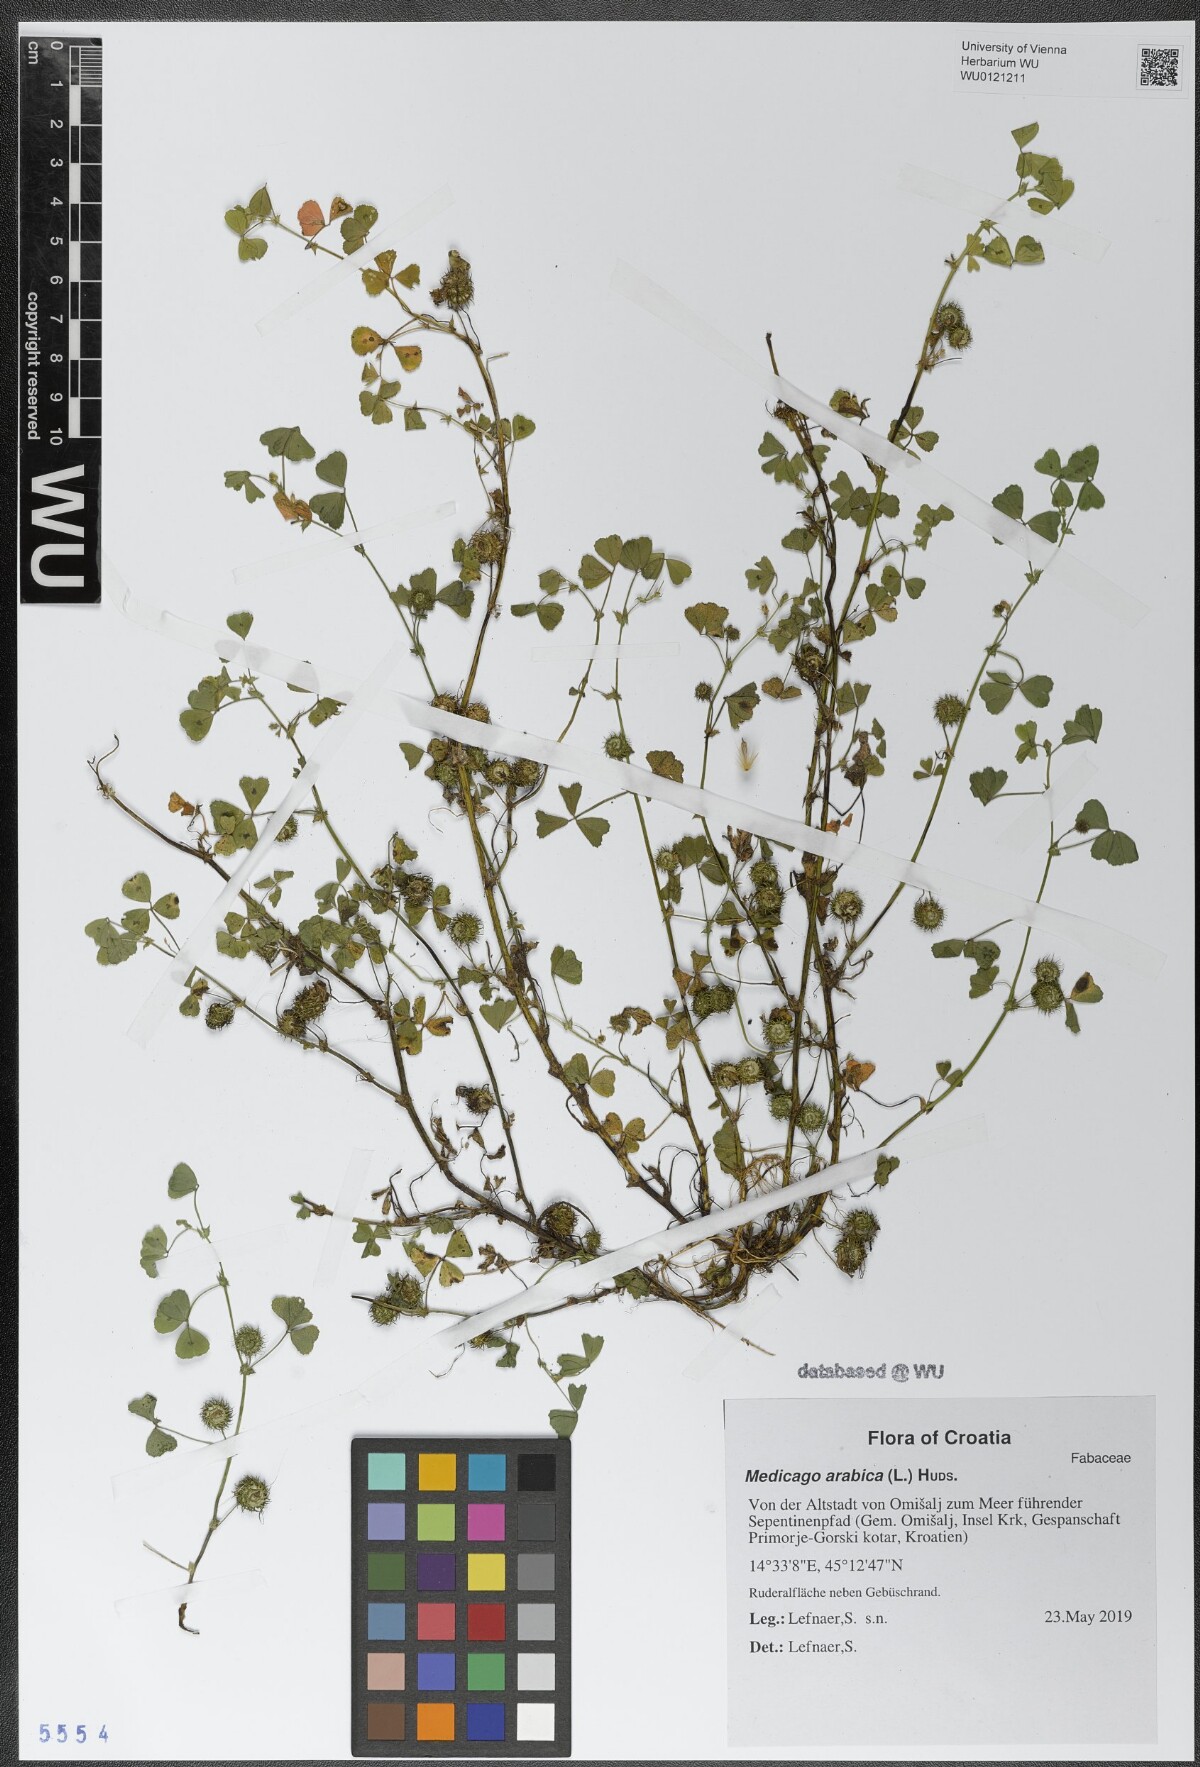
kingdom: Plantae
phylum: Tracheophyta
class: Magnoliopsida
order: Fabales
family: Fabaceae
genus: Medicago
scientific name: Medicago arabica
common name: Spotted medick
